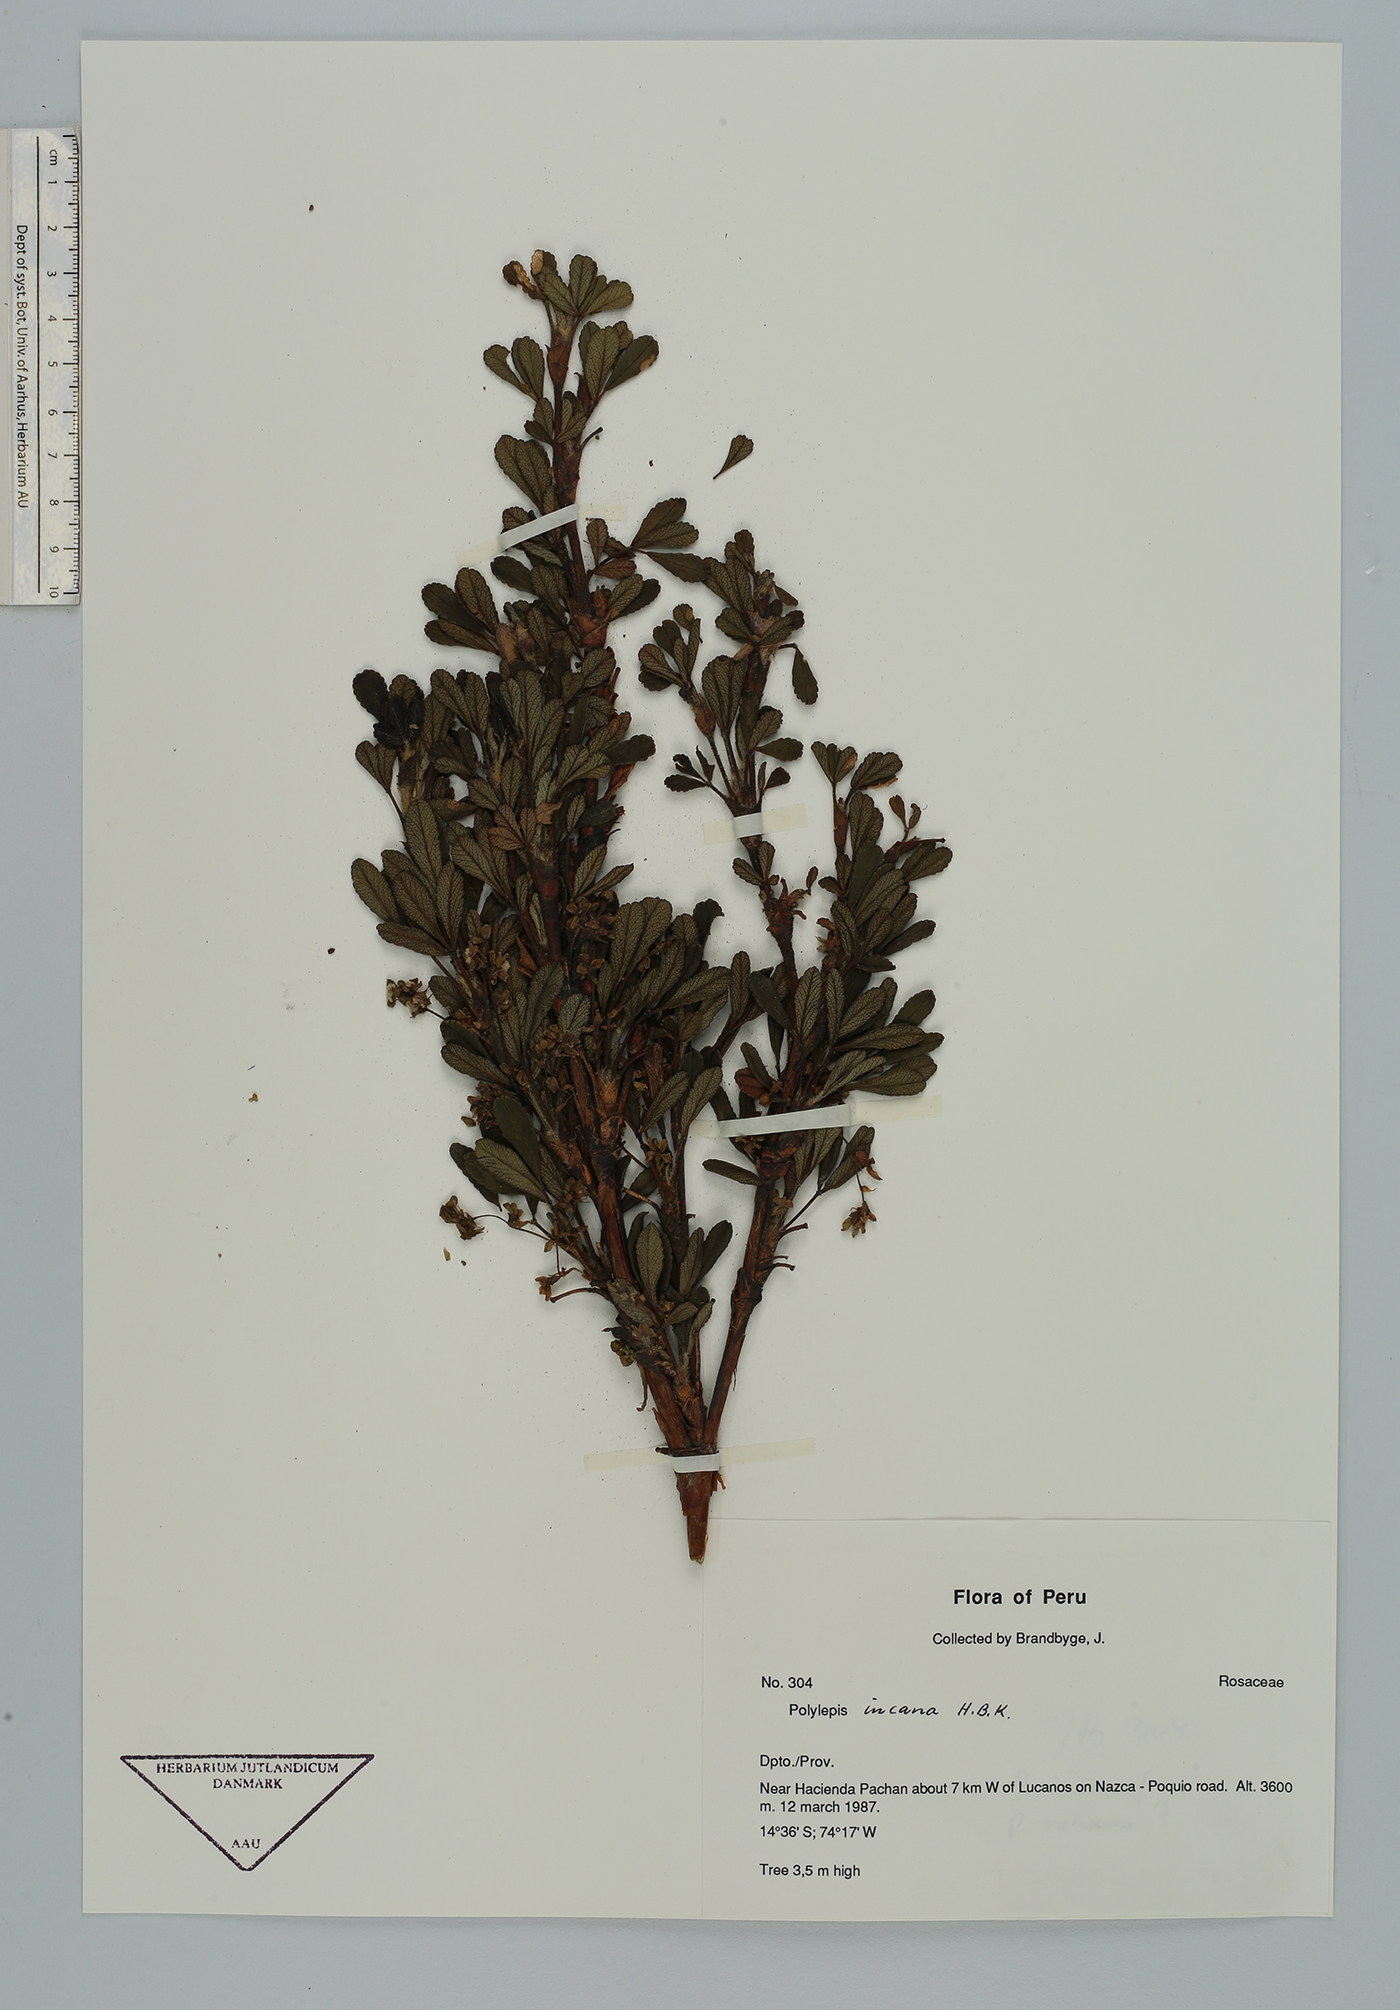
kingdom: Plantae
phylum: Tracheophyta
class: Magnoliopsida
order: Rosales
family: Rosaceae
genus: Polylepis
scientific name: Polylepis tomentella
